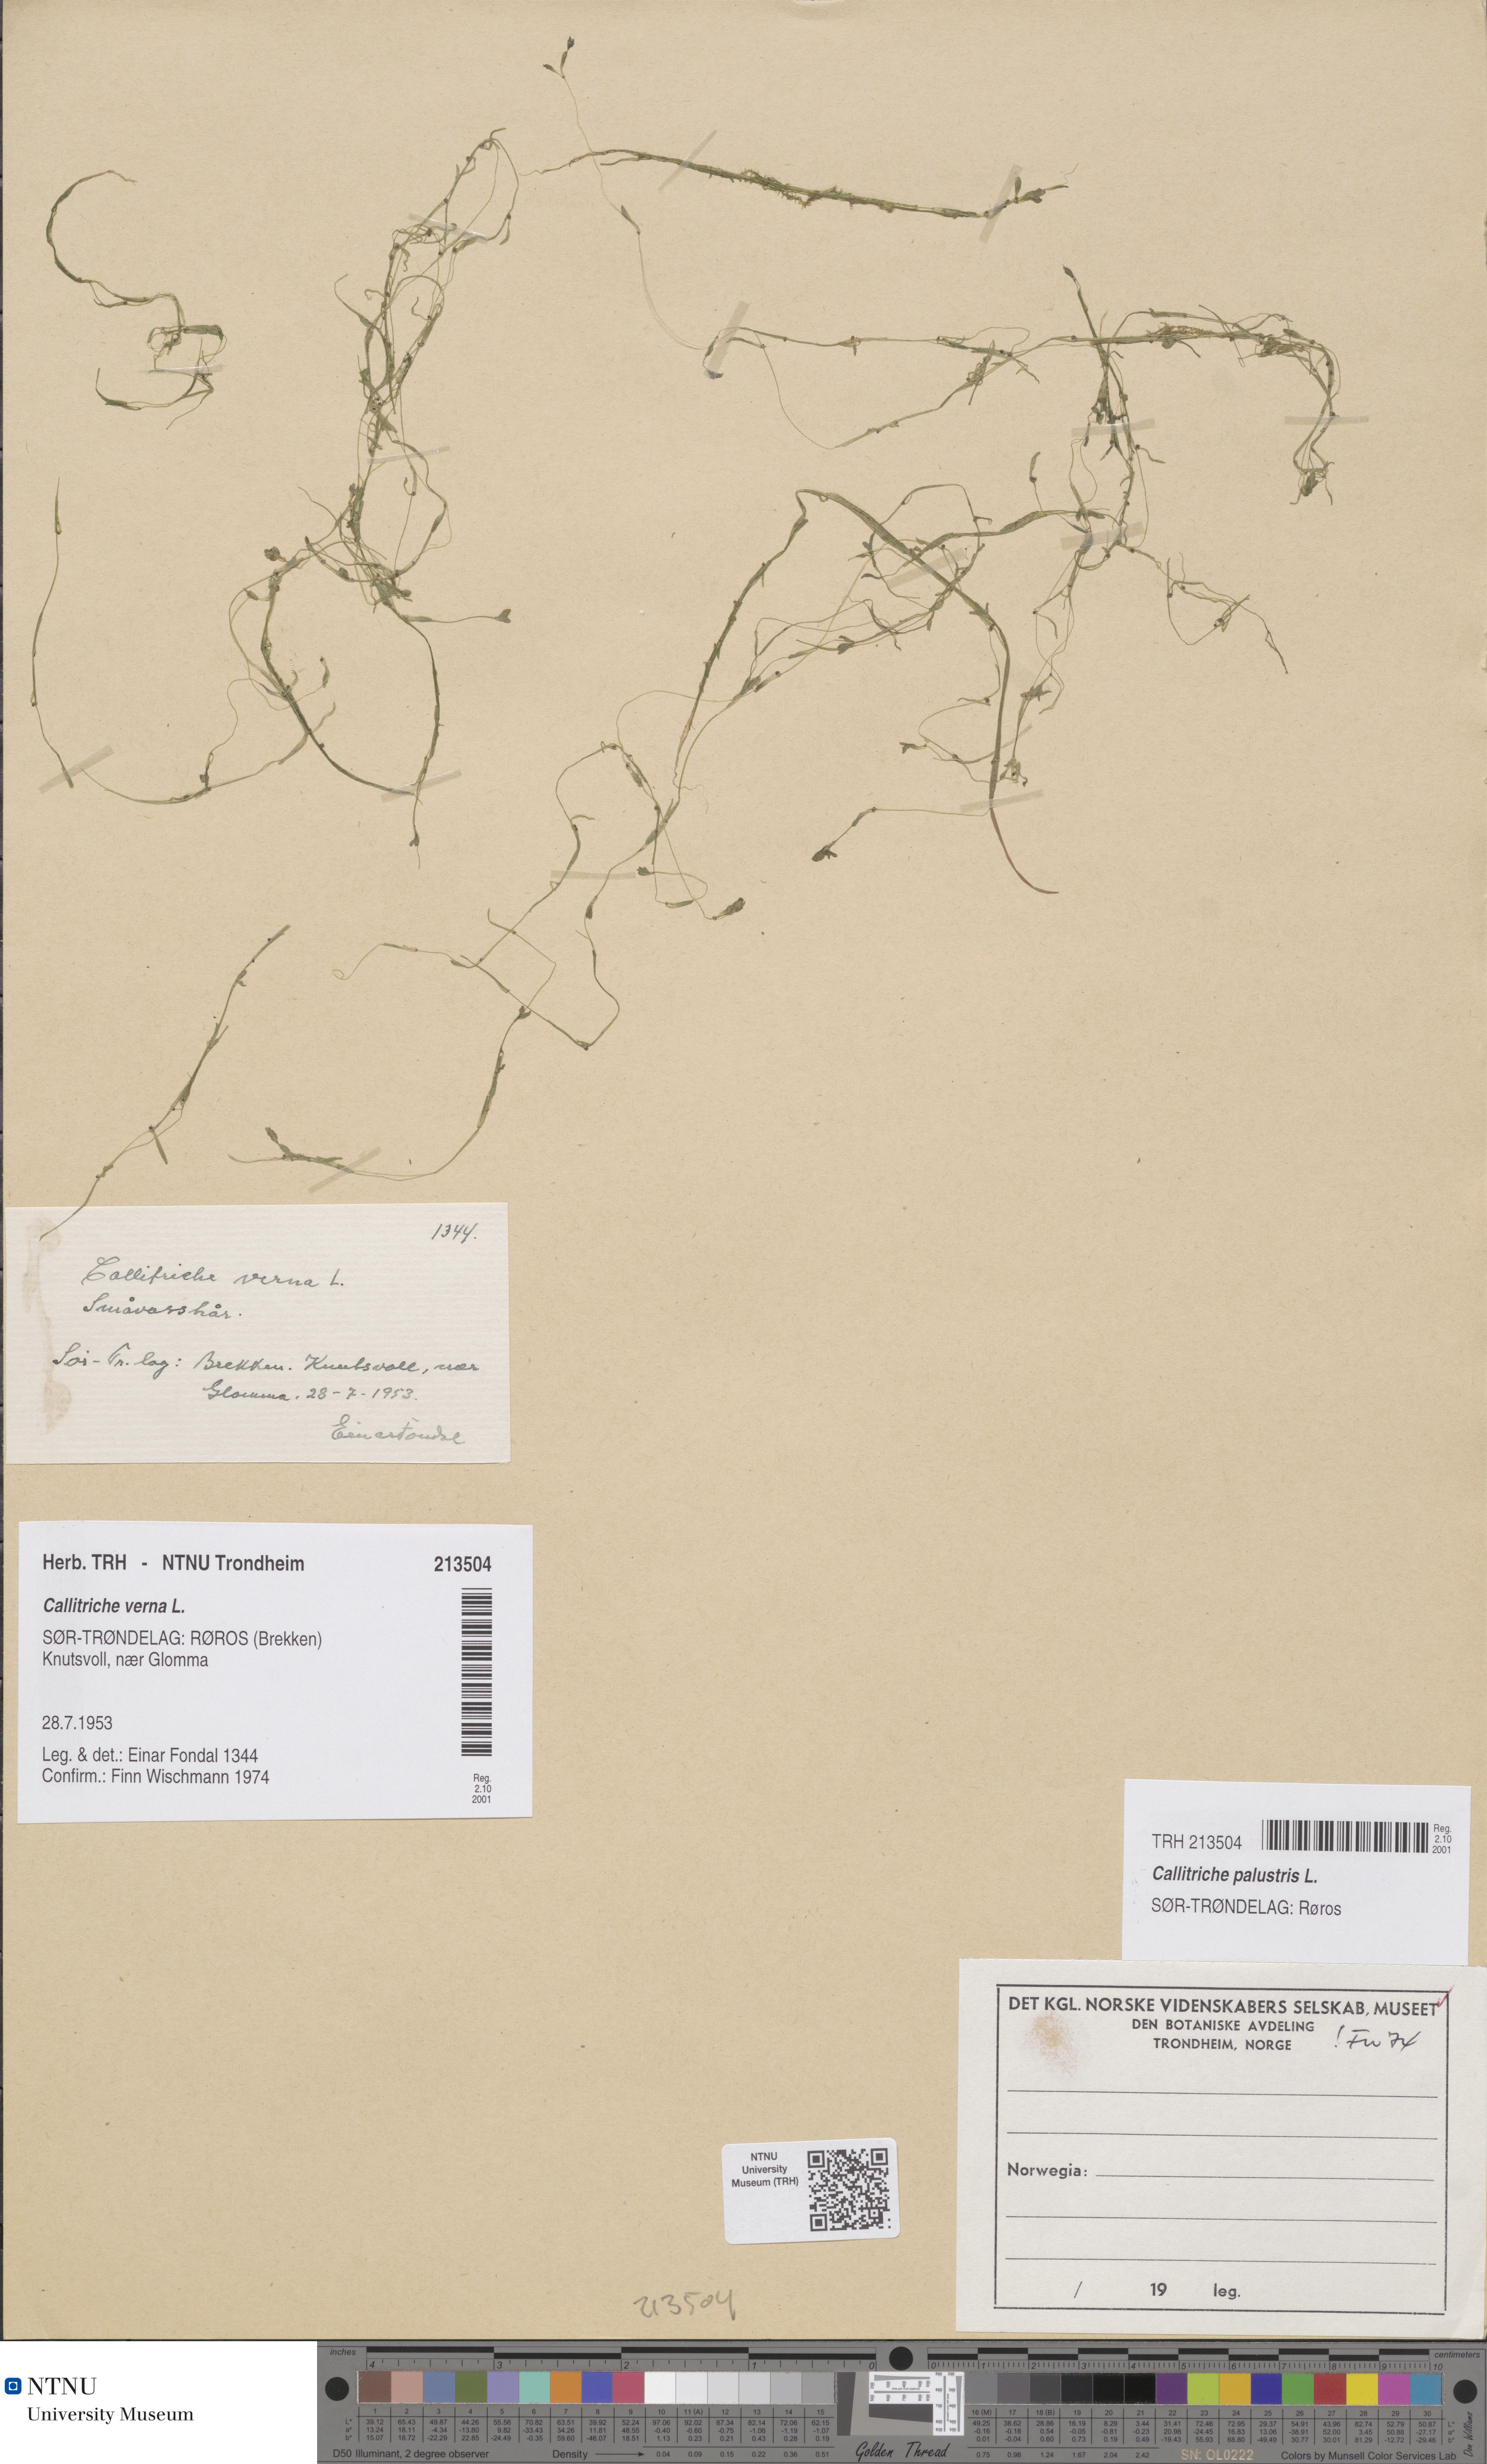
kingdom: Plantae
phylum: Tracheophyta
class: Magnoliopsida
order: Lamiales
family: Plantaginaceae
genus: Callitriche
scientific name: Callitriche palustris
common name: Spring water-starwort
